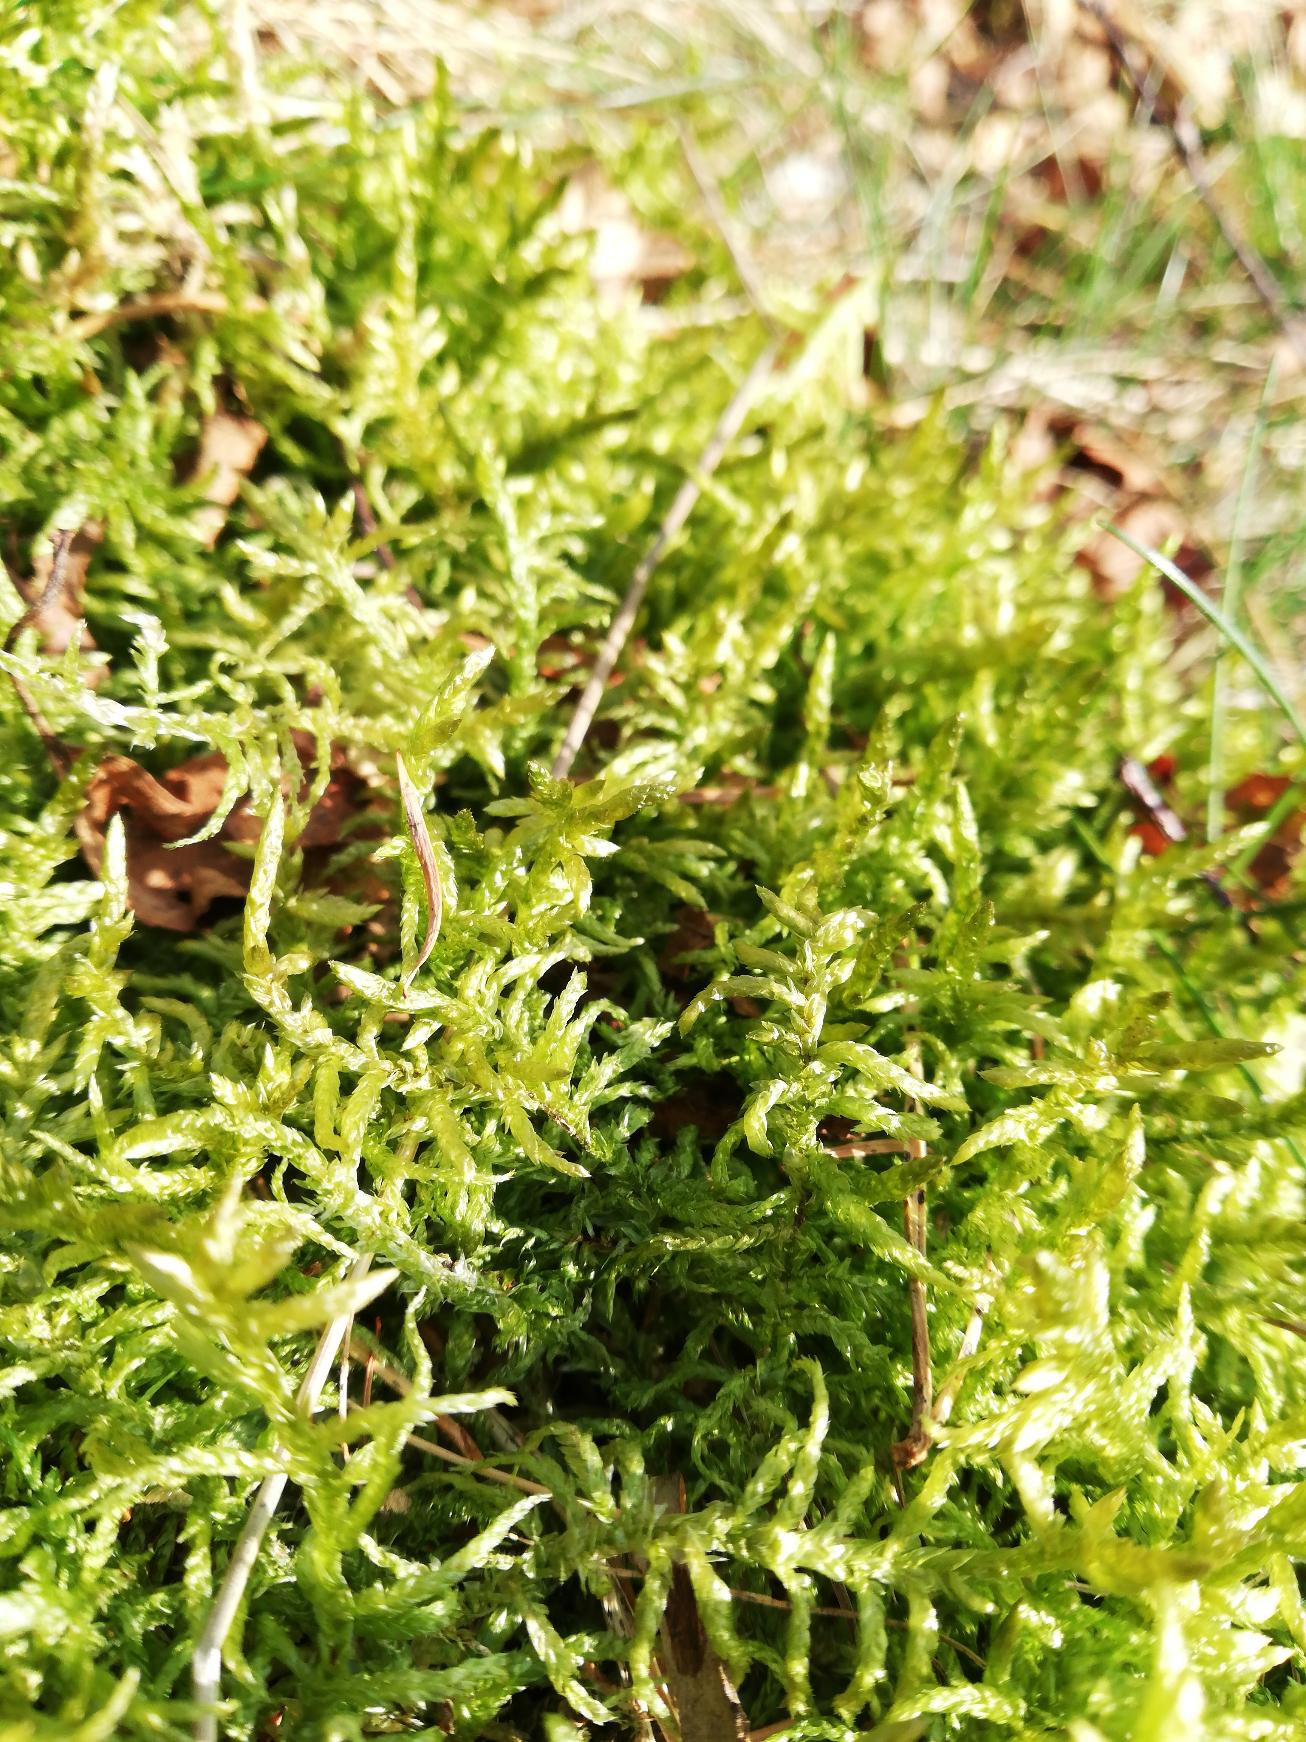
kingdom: Plantae
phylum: Bryophyta
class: Bryopsida
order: Hypnales
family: Brachytheciaceae
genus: Pseudoscleropodium
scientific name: Pseudoscleropodium purum
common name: Hulbladet fedtmos
